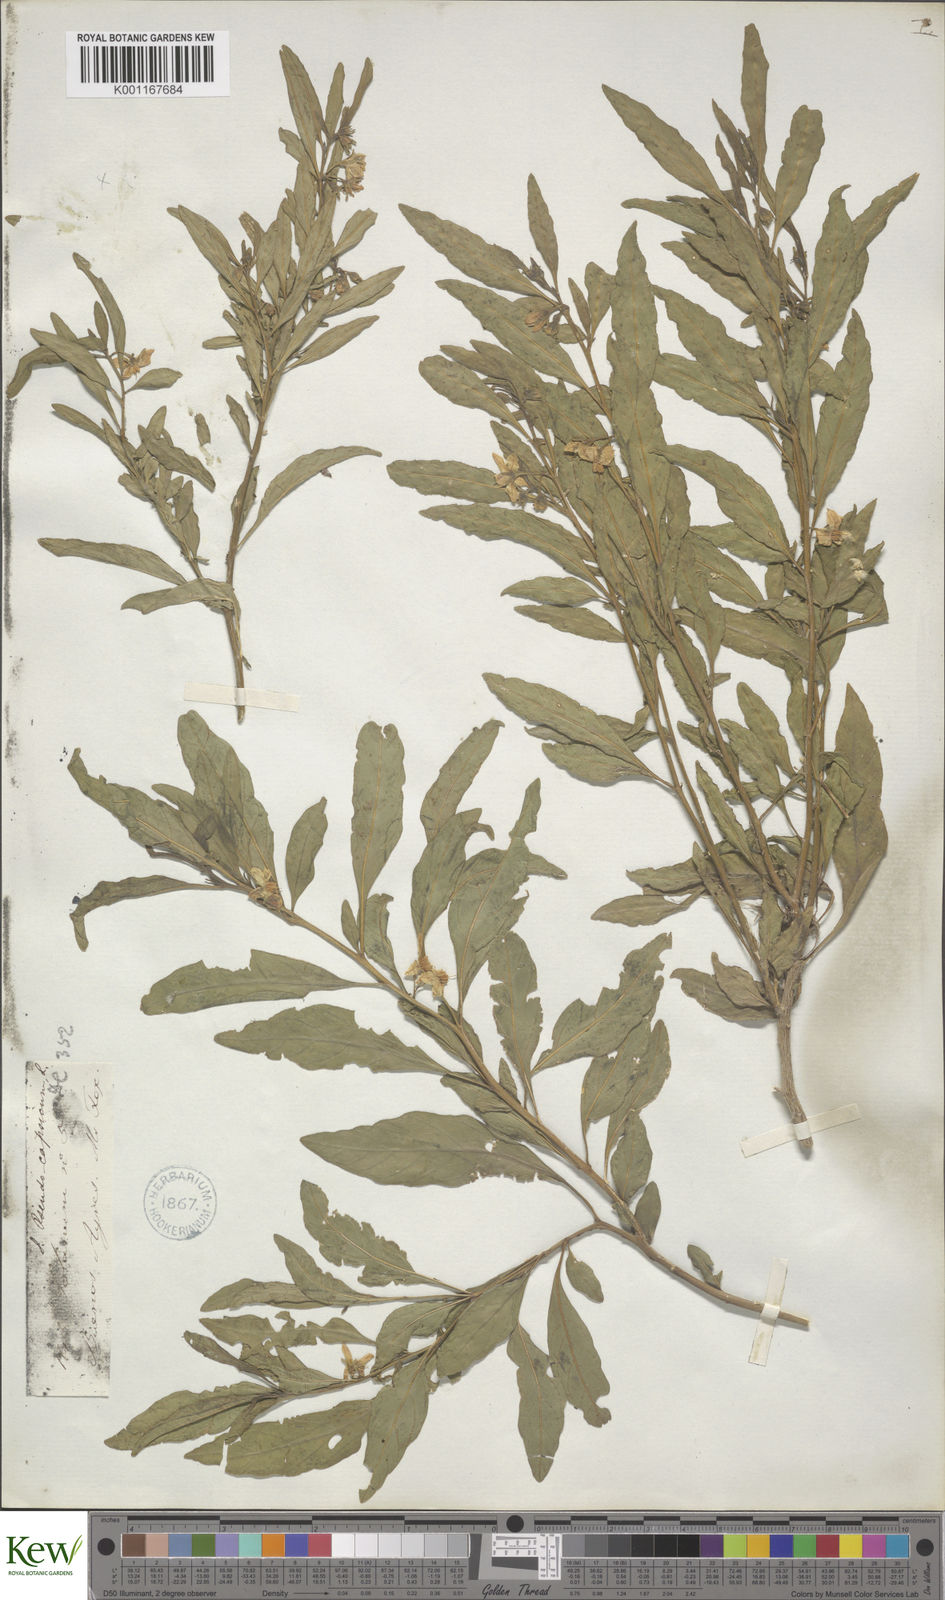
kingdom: Plantae
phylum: Tracheophyta
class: Magnoliopsida
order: Solanales
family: Solanaceae
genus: Solanum
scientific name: Solanum pseudocapsicum
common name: Jerusalem cherry
